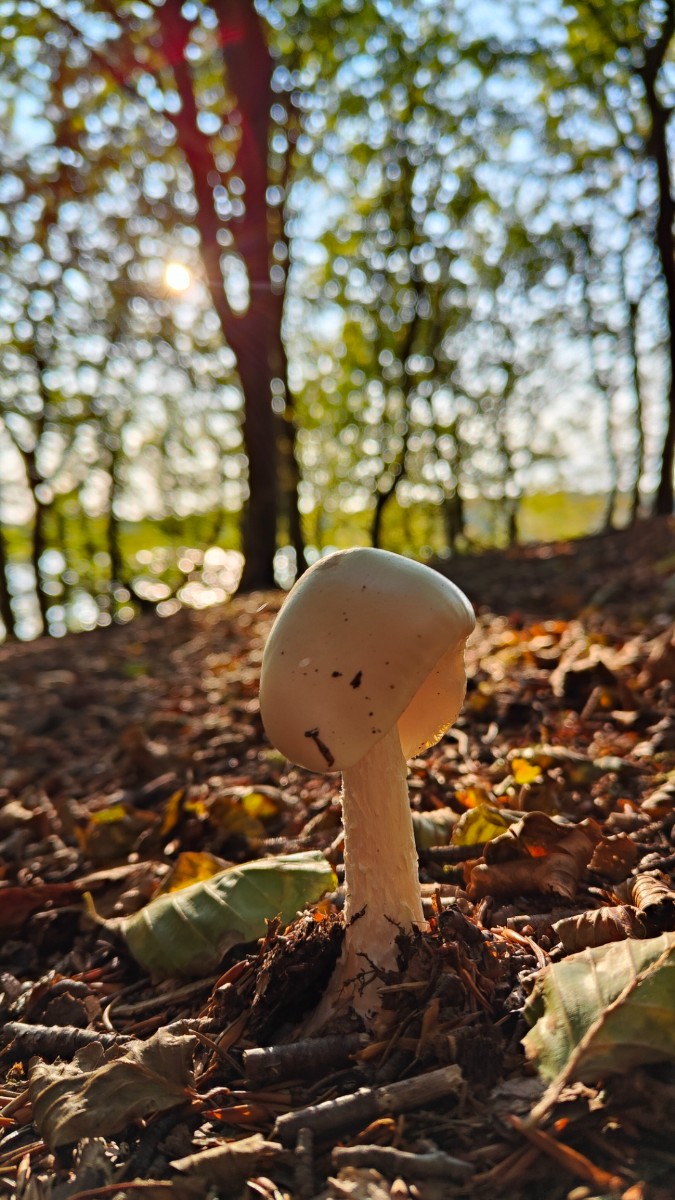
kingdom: Fungi
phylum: Basidiomycota
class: Agaricomycetes
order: Agaricales
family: Amanitaceae
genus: Amanita
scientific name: Amanita virosa
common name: snehvid fluesvamp
